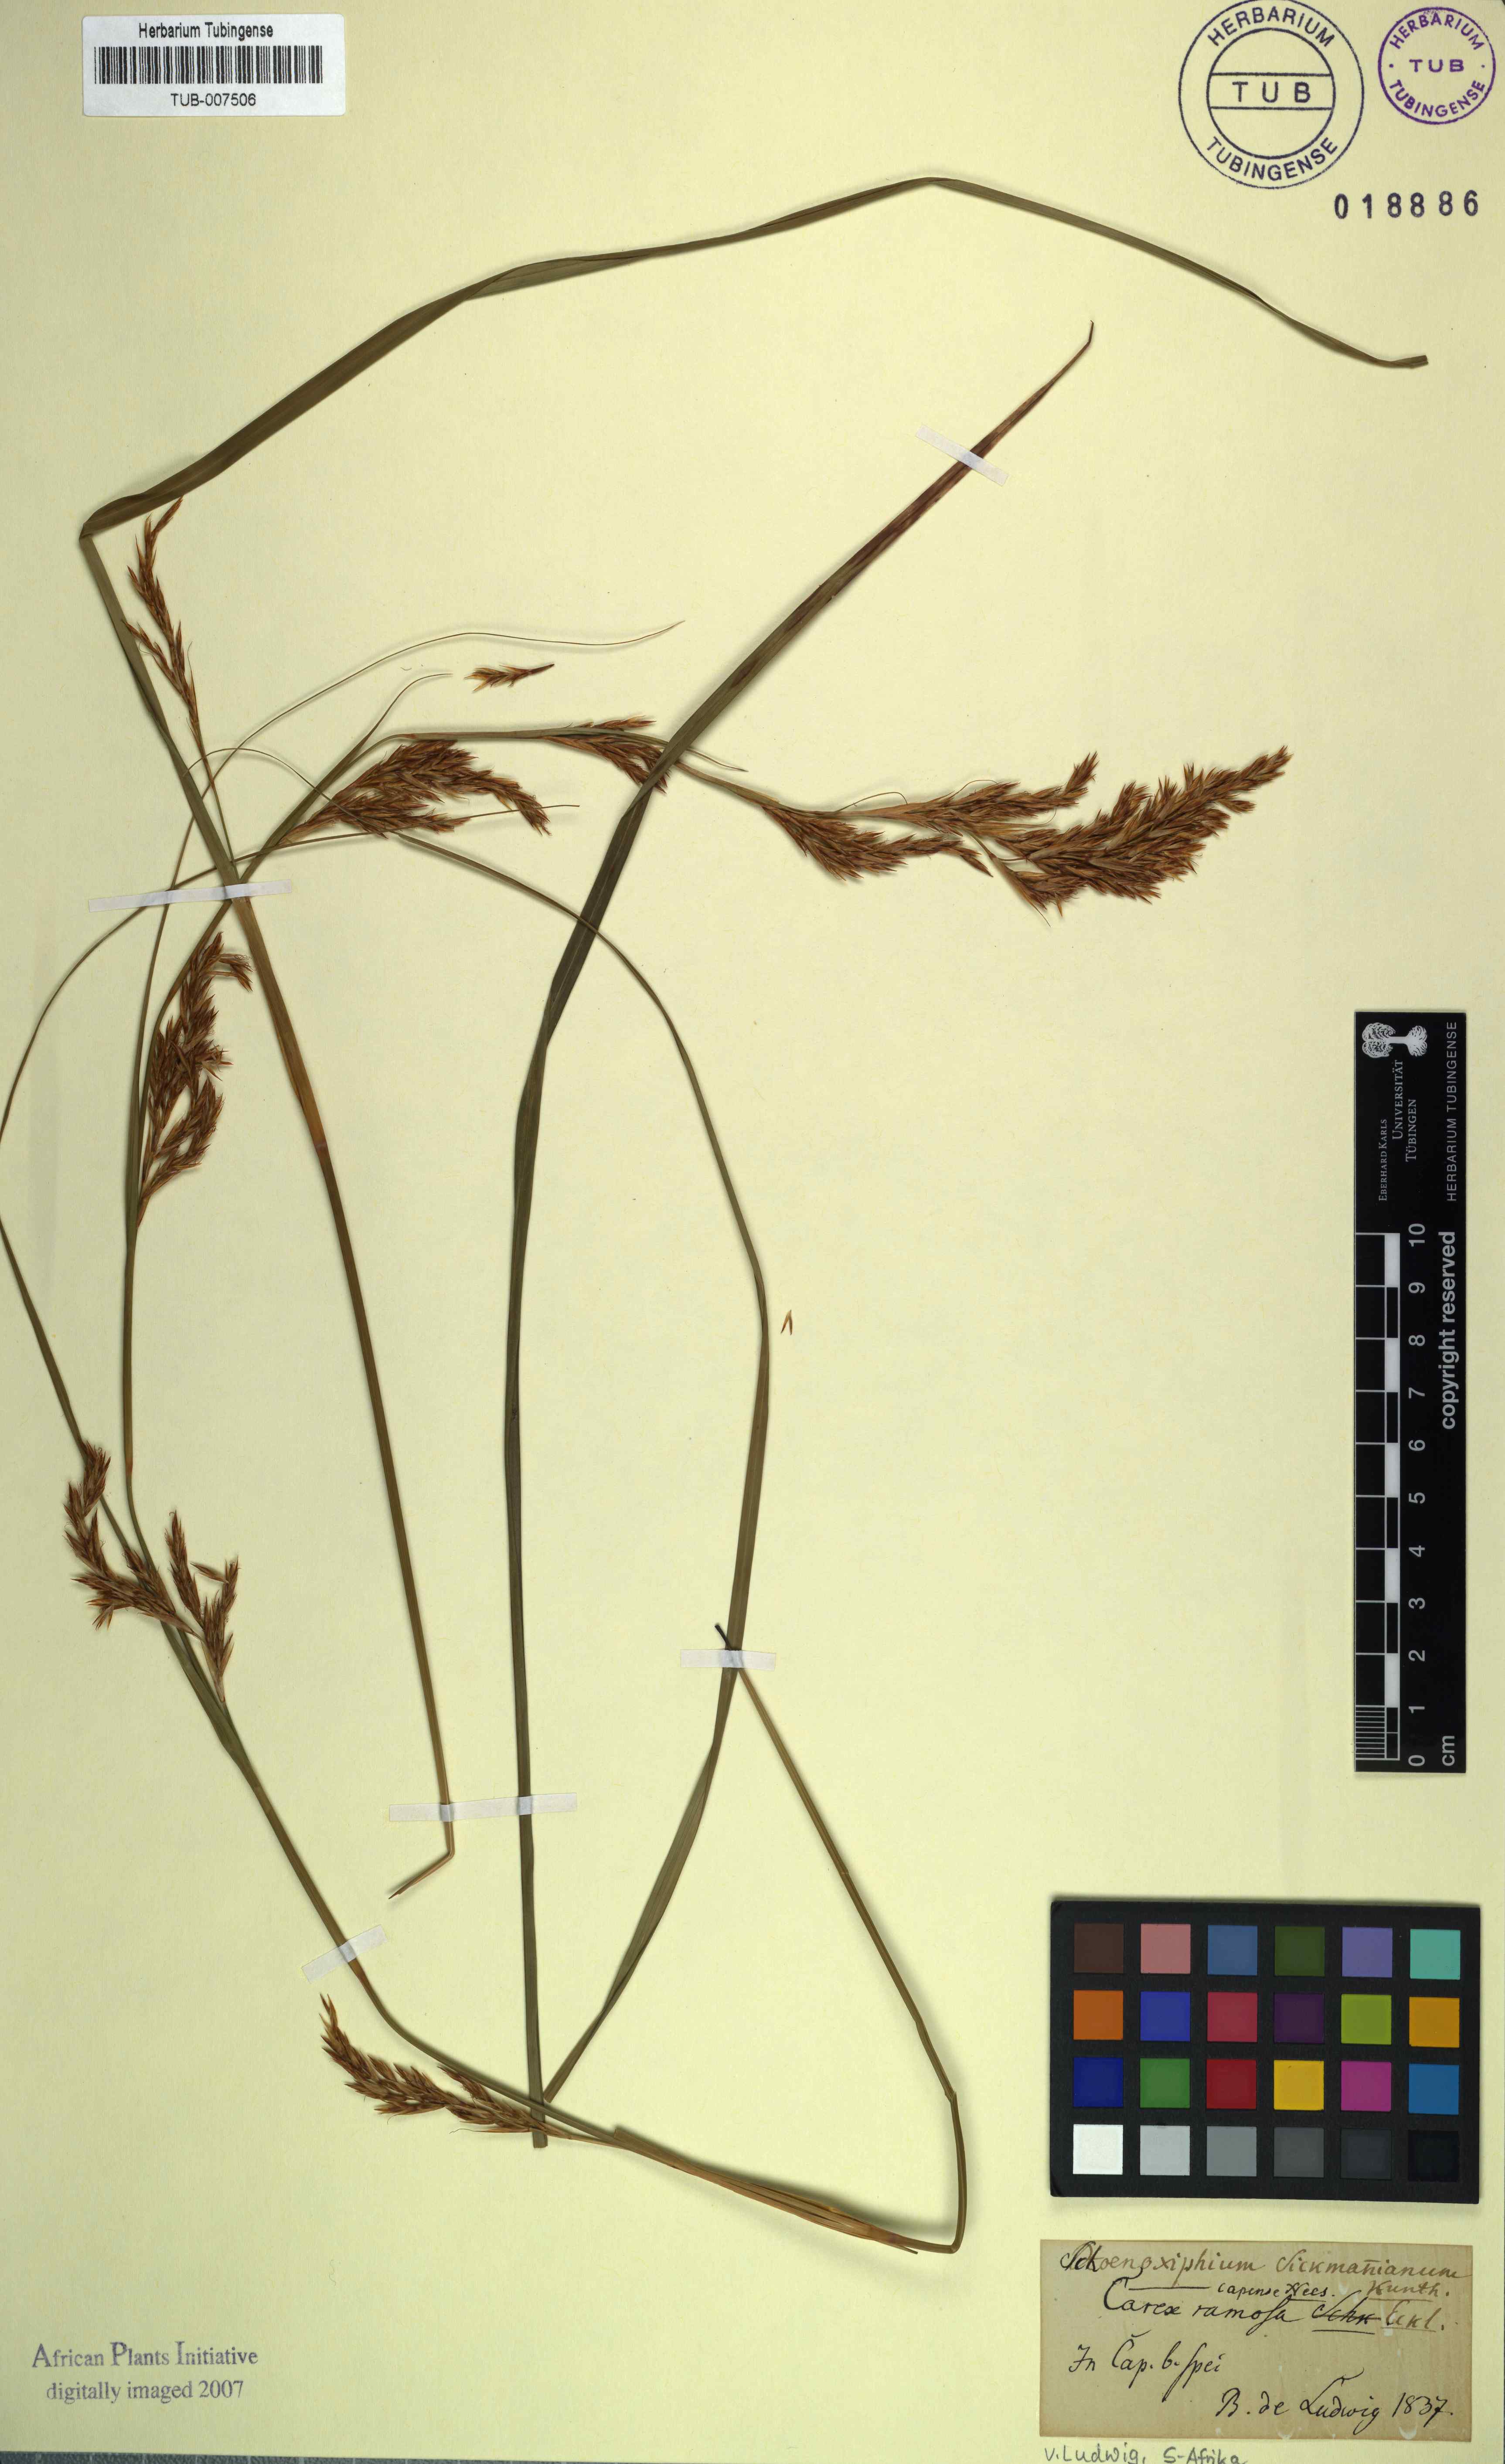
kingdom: Plantae
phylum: Tracheophyta
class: Liliopsida
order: Poales
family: Cyperaceae
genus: Carex
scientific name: Carex lancea
